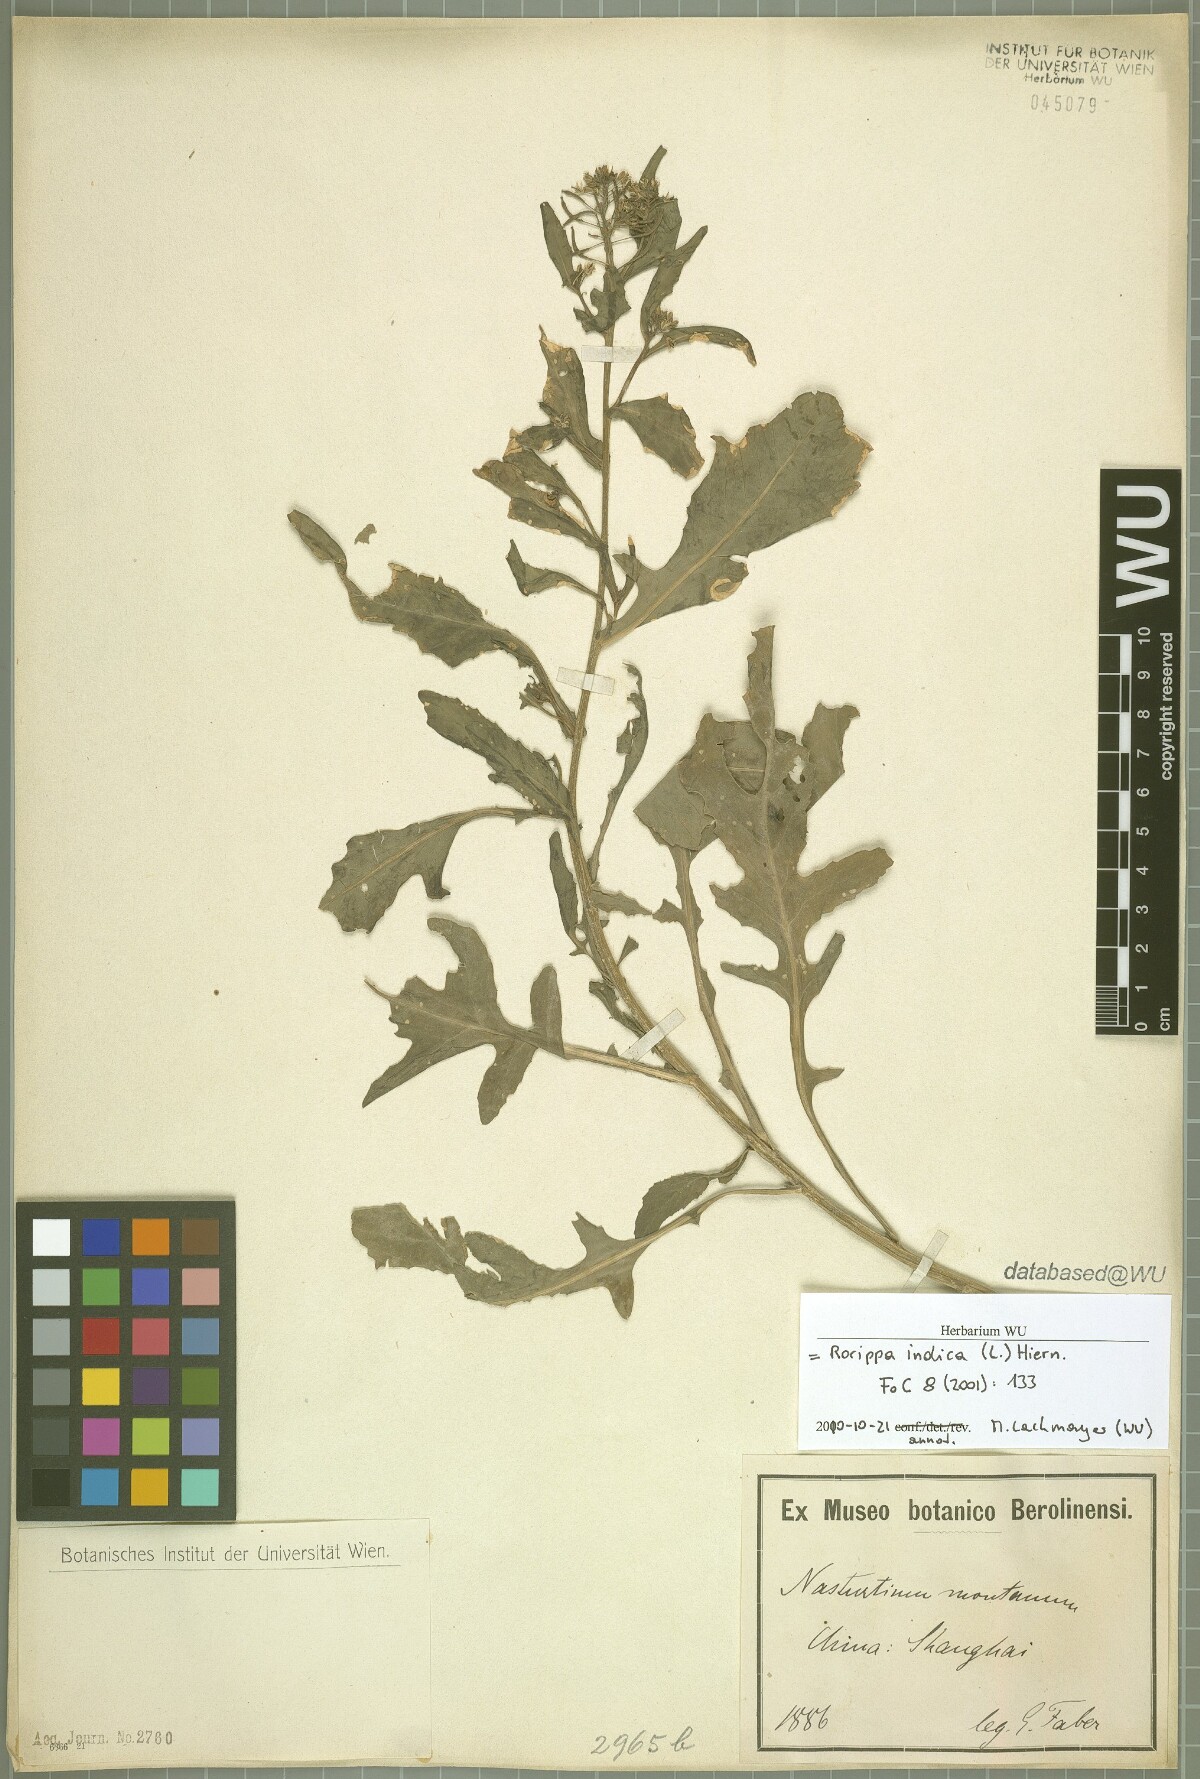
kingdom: Plantae
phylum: Tracheophyta
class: Magnoliopsida
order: Brassicales
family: Brassicaceae
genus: Rorippa
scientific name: Rorippa indica
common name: Variableleaf yellowcress
